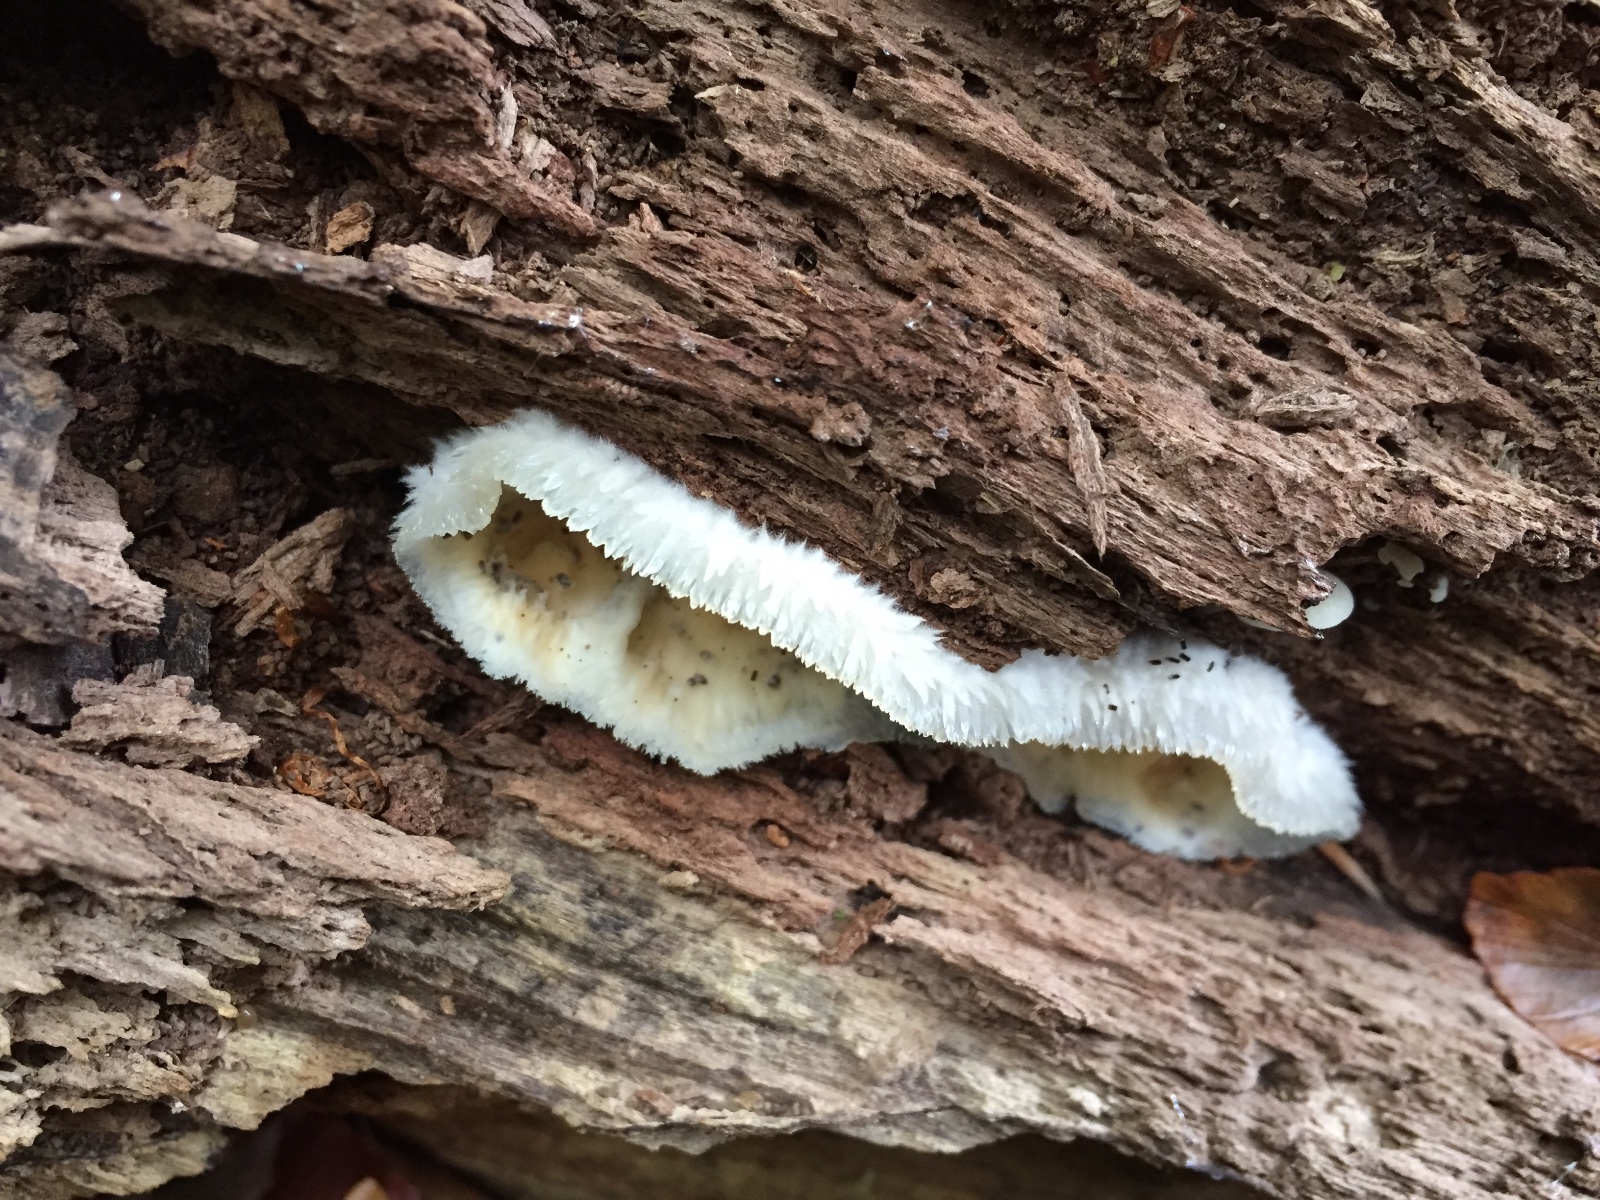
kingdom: Fungi
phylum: Basidiomycota
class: Agaricomycetes
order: Polyporales
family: Meruliaceae
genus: Phlebia
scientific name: Phlebia tremellosa
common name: bævrende åresvamp
